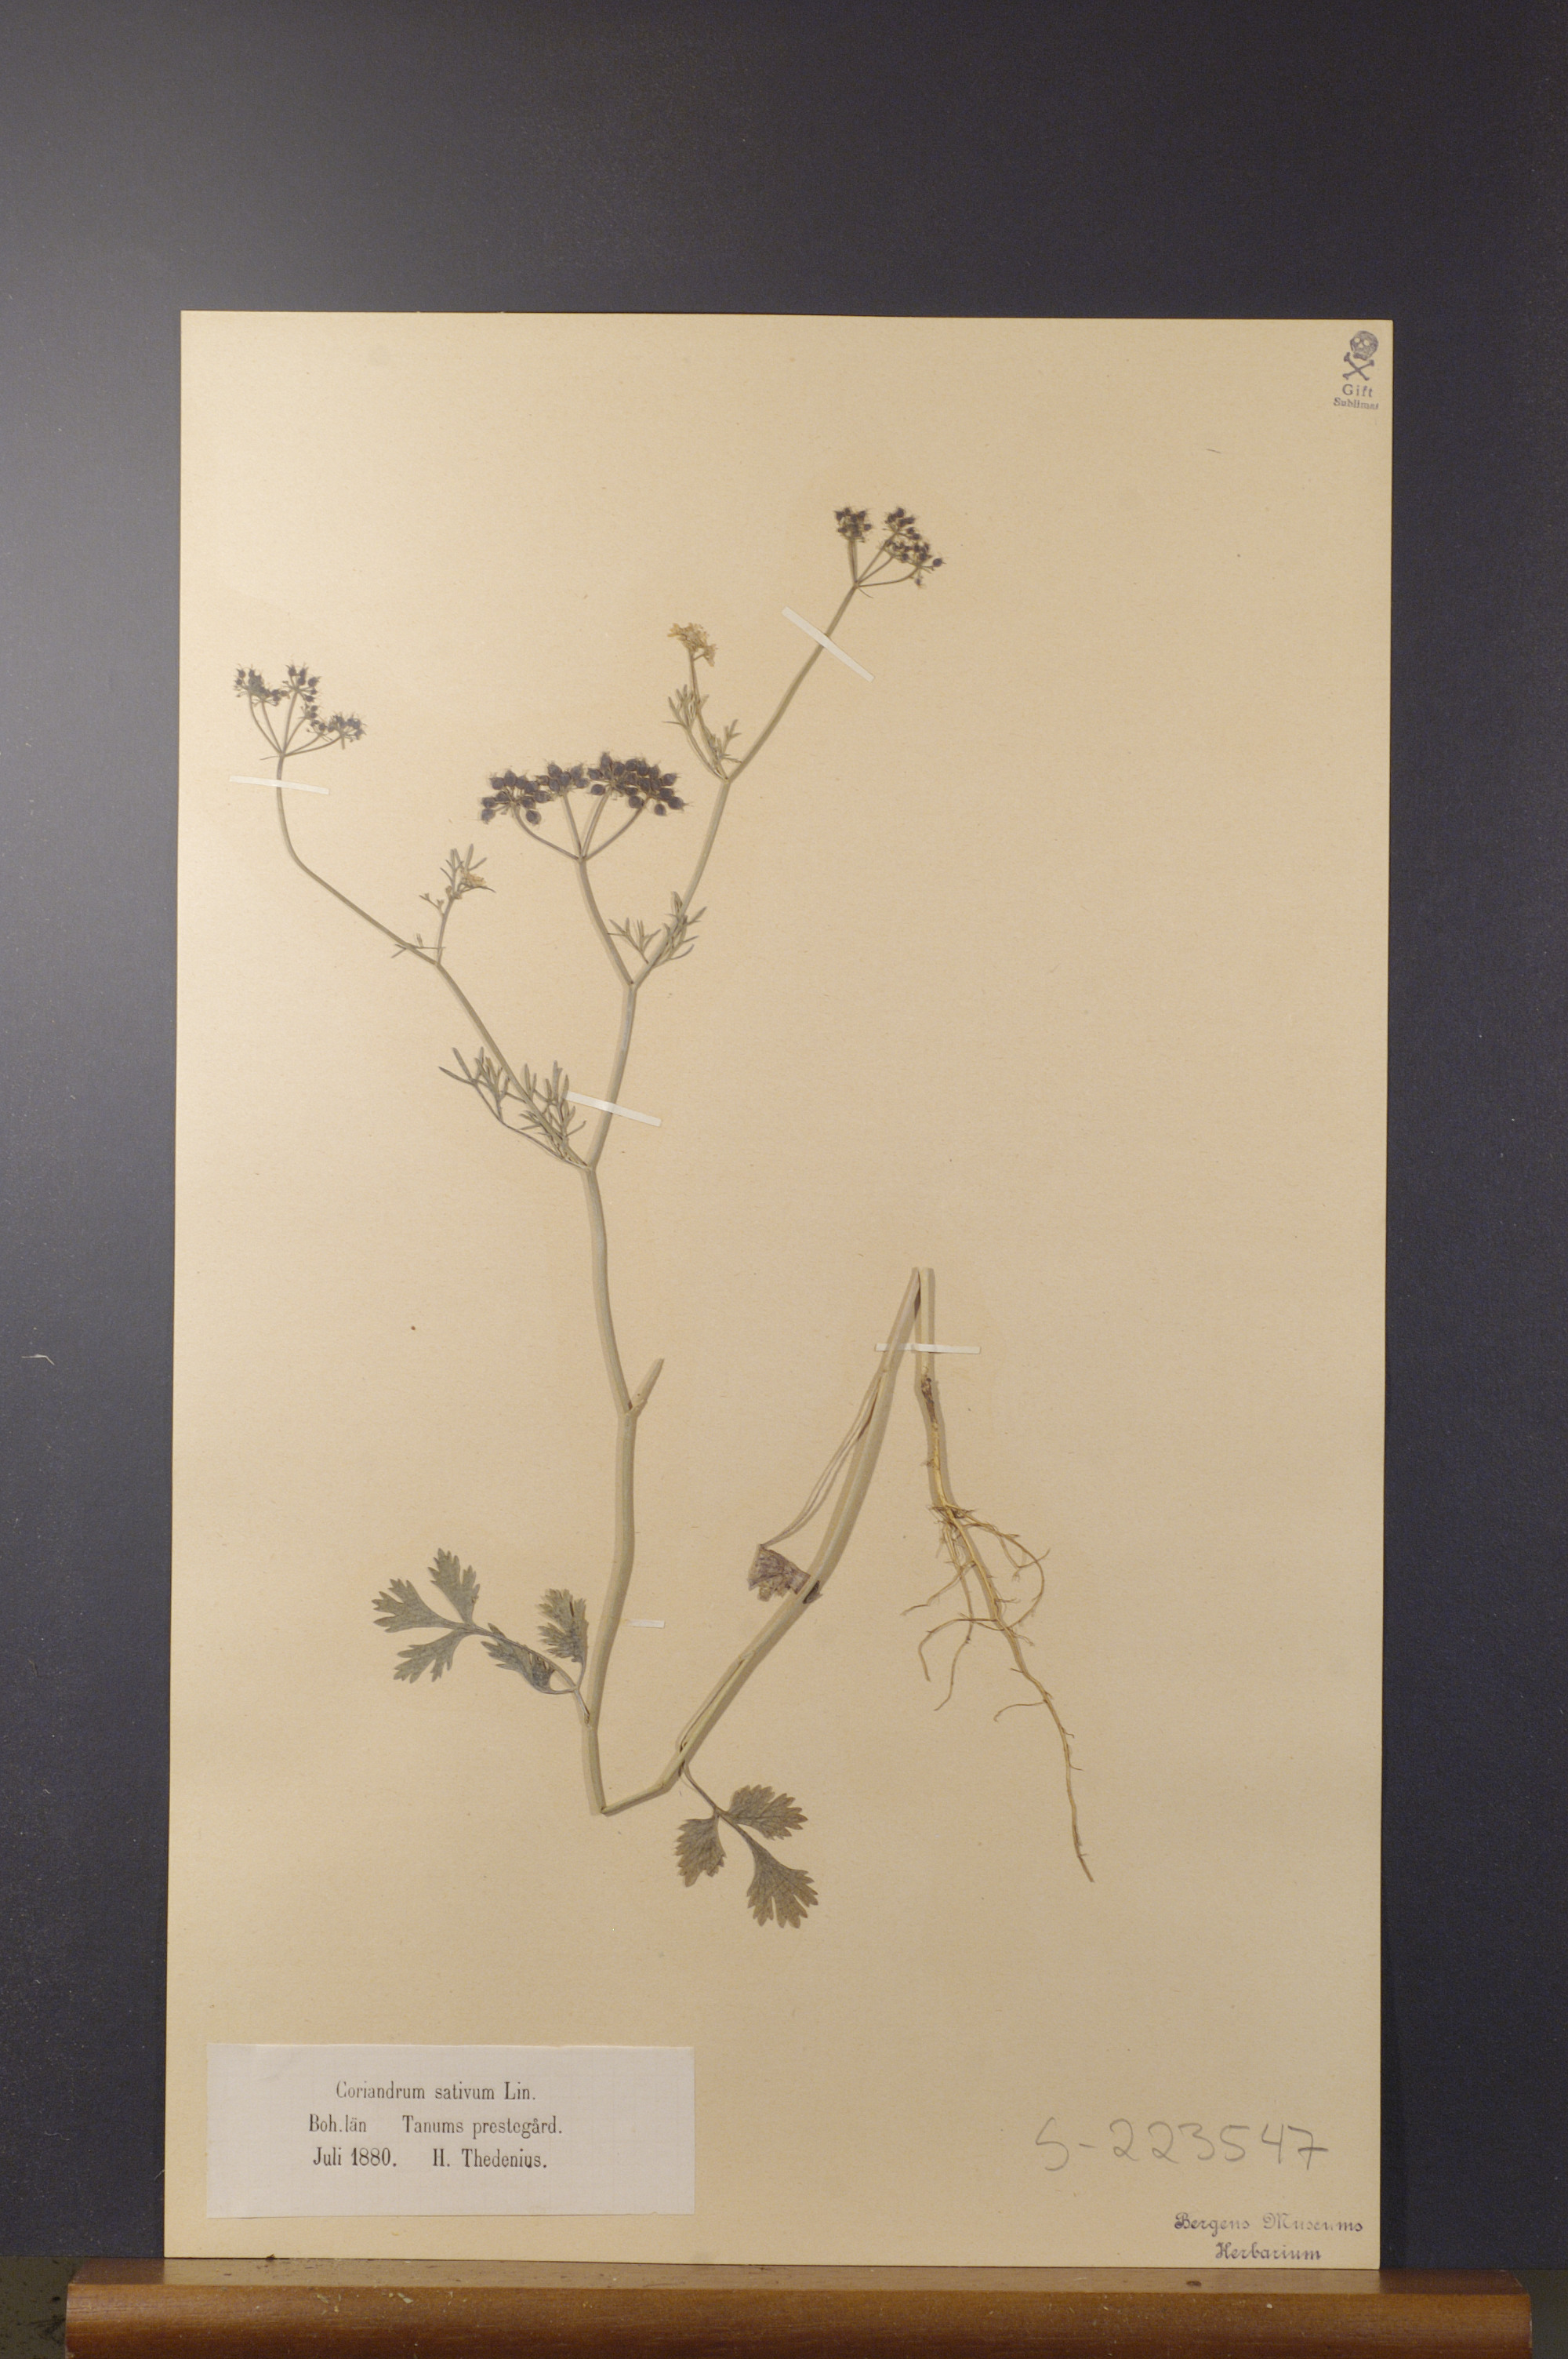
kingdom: Plantae
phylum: Tracheophyta
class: Magnoliopsida
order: Apiales
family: Apiaceae
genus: Coriandrum
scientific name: Coriandrum sativum
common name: Coriander
